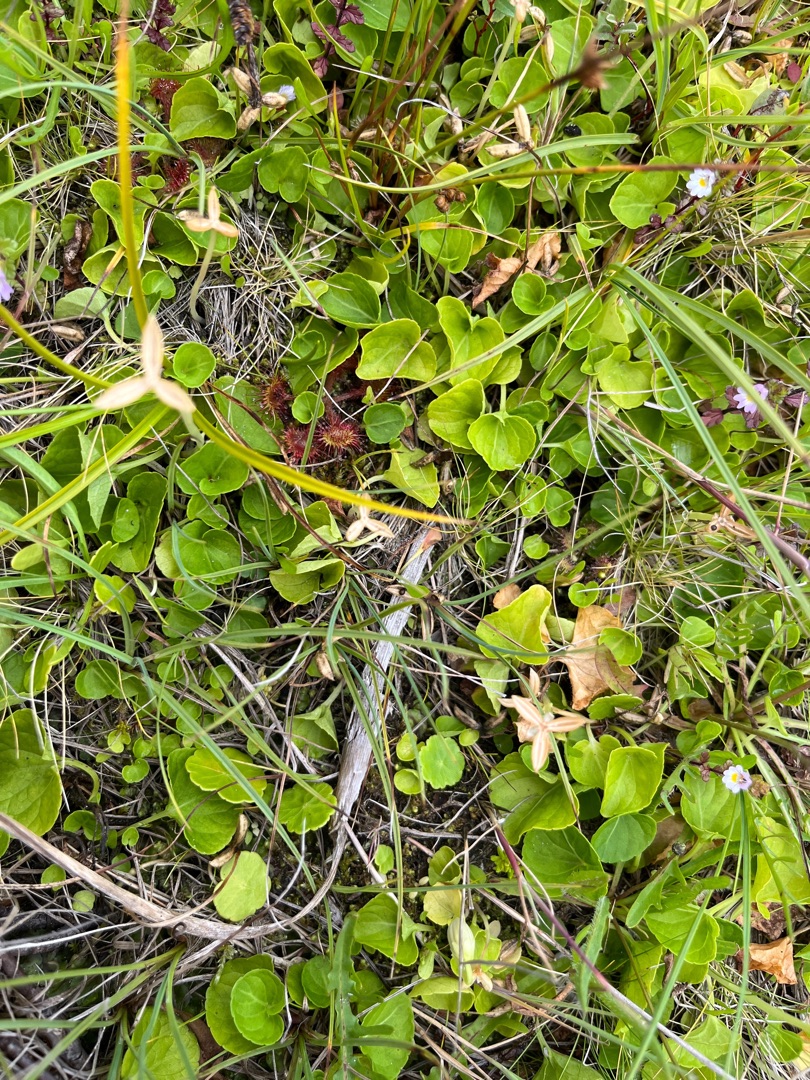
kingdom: Plantae
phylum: Tracheophyta
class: Magnoliopsida
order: Malpighiales
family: Violaceae
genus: Viola
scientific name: Viola palustris
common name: Eng-viol
